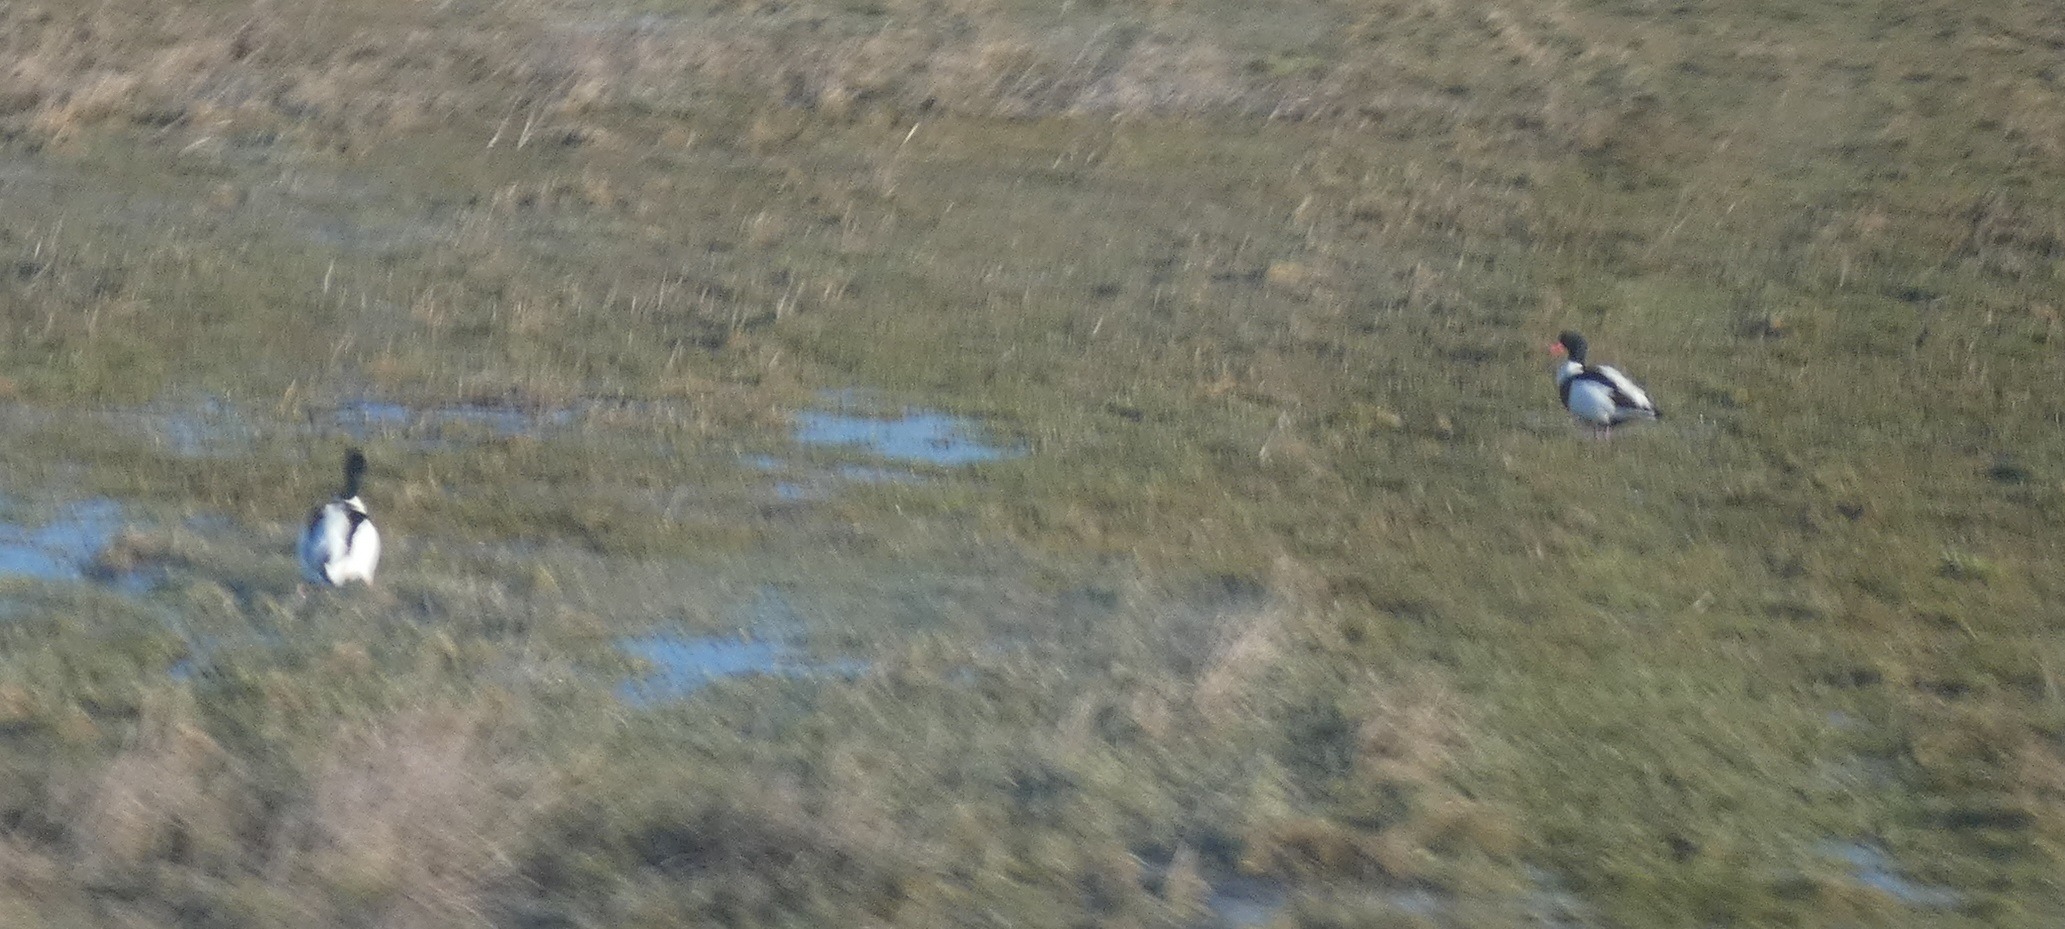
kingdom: Animalia
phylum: Chordata
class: Aves
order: Anseriformes
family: Anatidae
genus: Tadorna
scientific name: Tadorna tadorna
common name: Gravand
